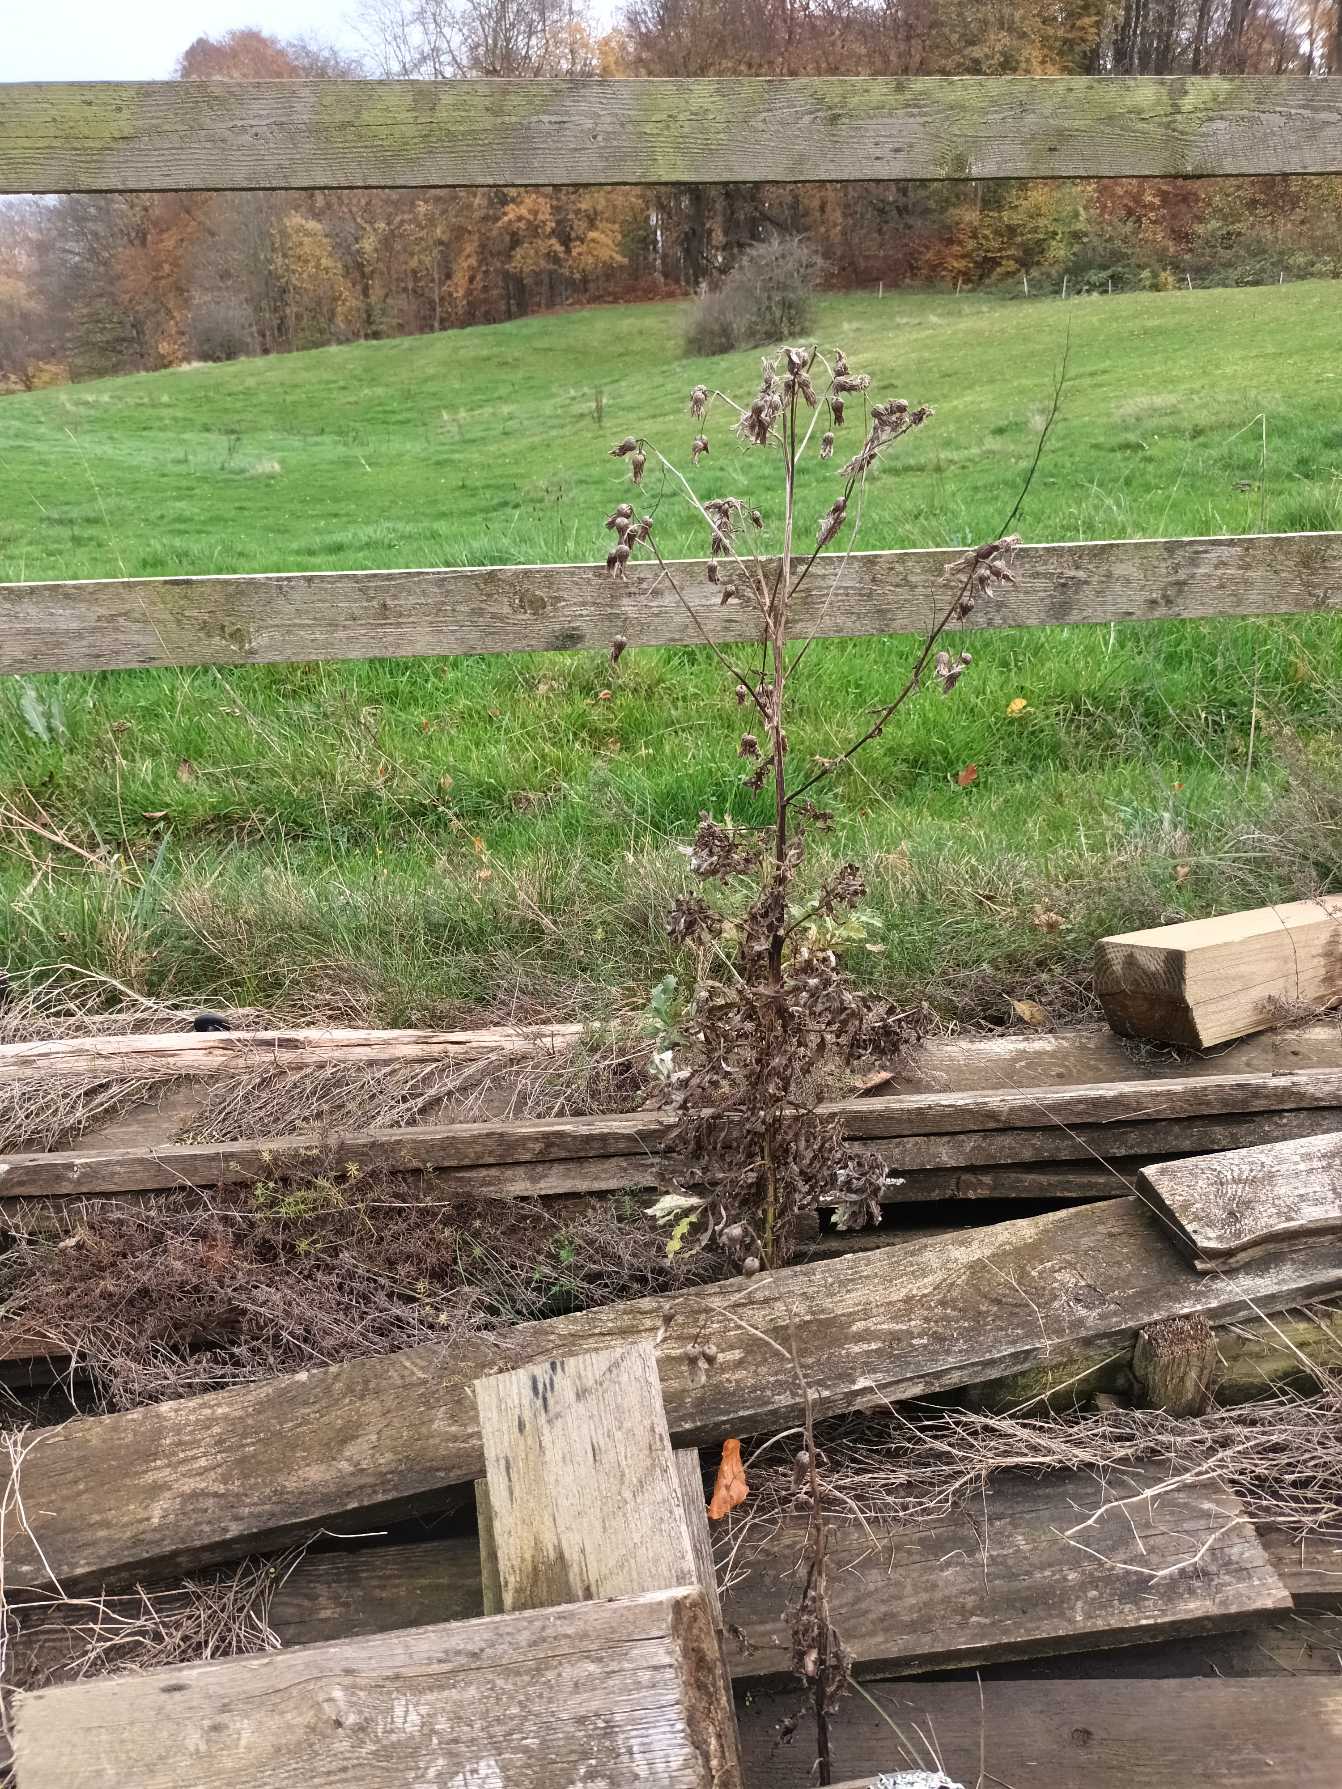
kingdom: Plantae
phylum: Tracheophyta
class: Magnoliopsida
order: Asterales
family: Asteraceae
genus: Cirsium
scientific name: Cirsium arvense
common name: Ager-tidsel
